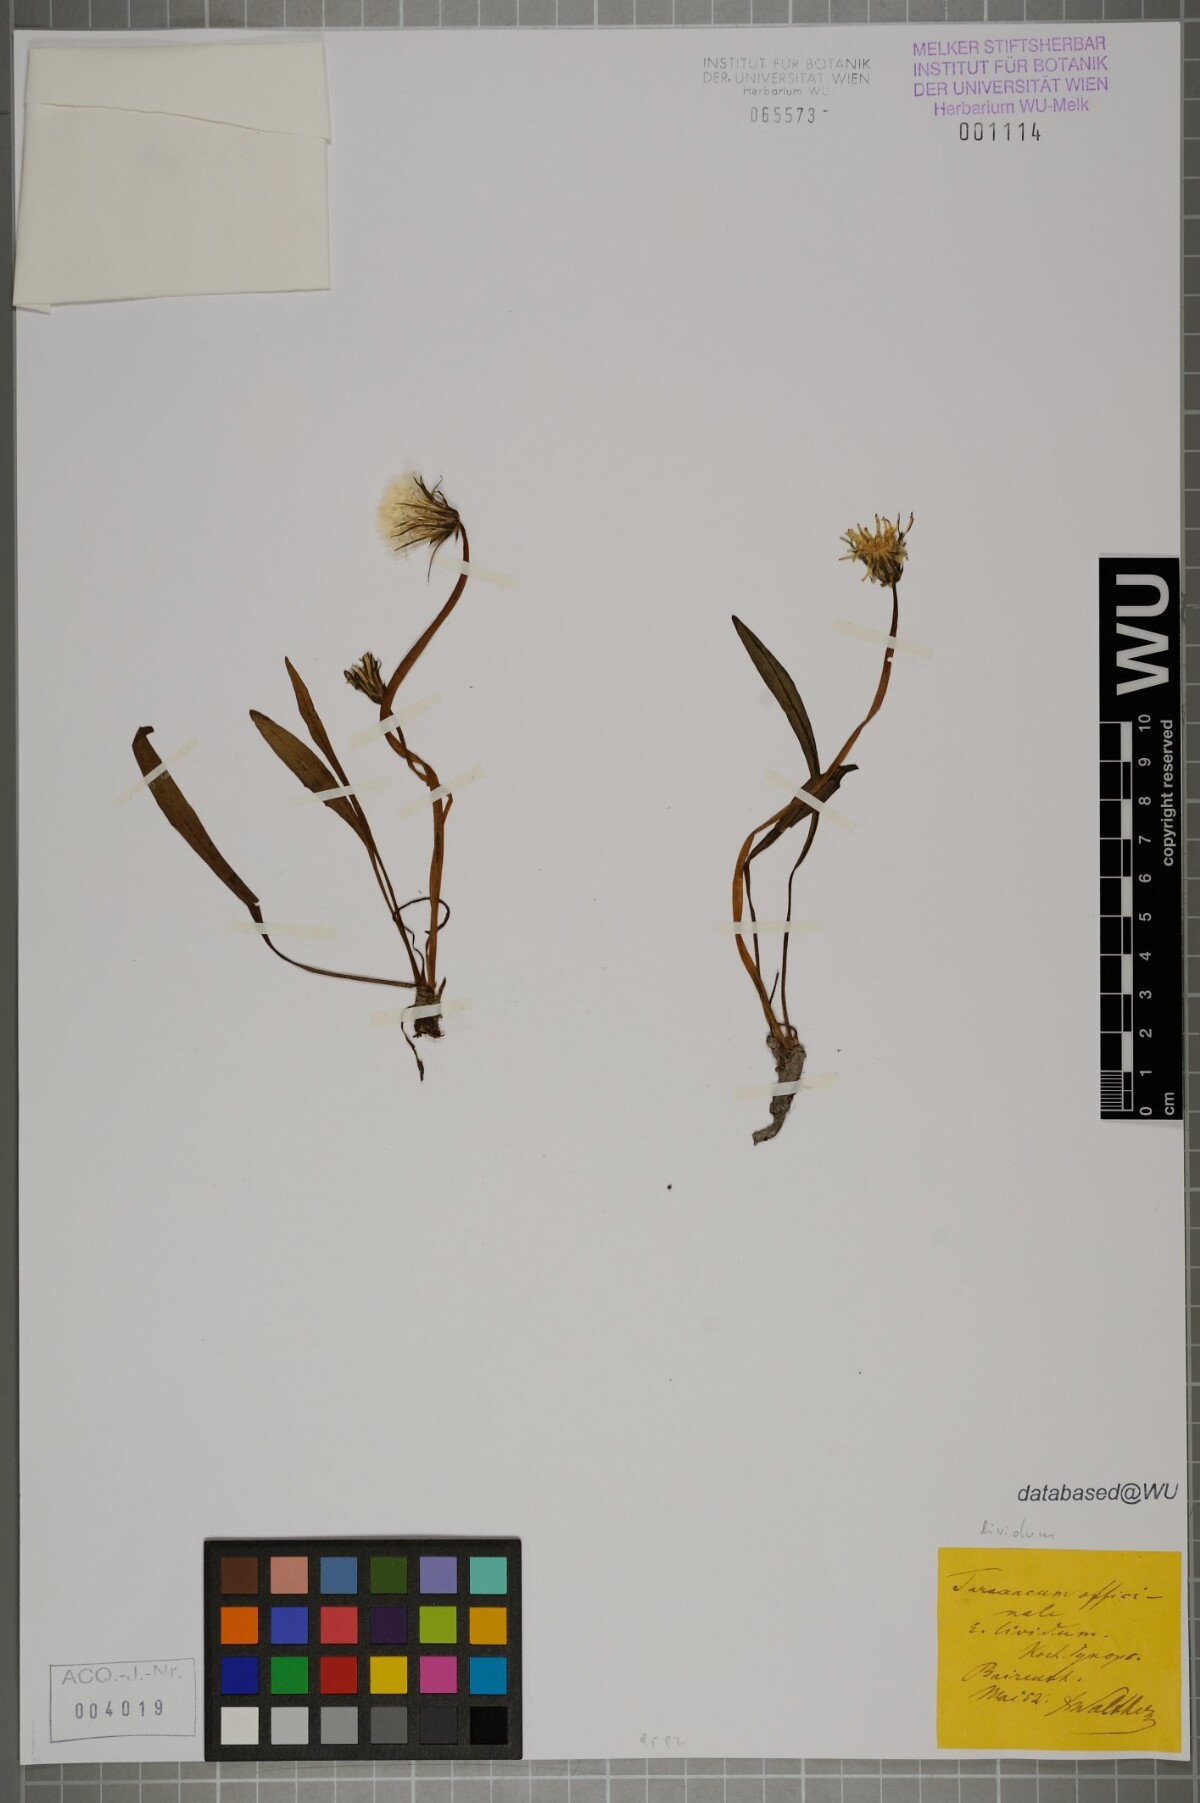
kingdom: Plantae
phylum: Tracheophyta
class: Magnoliopsida
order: Asterales
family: Asteraceae
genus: Taraxacum
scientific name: Taraxacum paludosum
